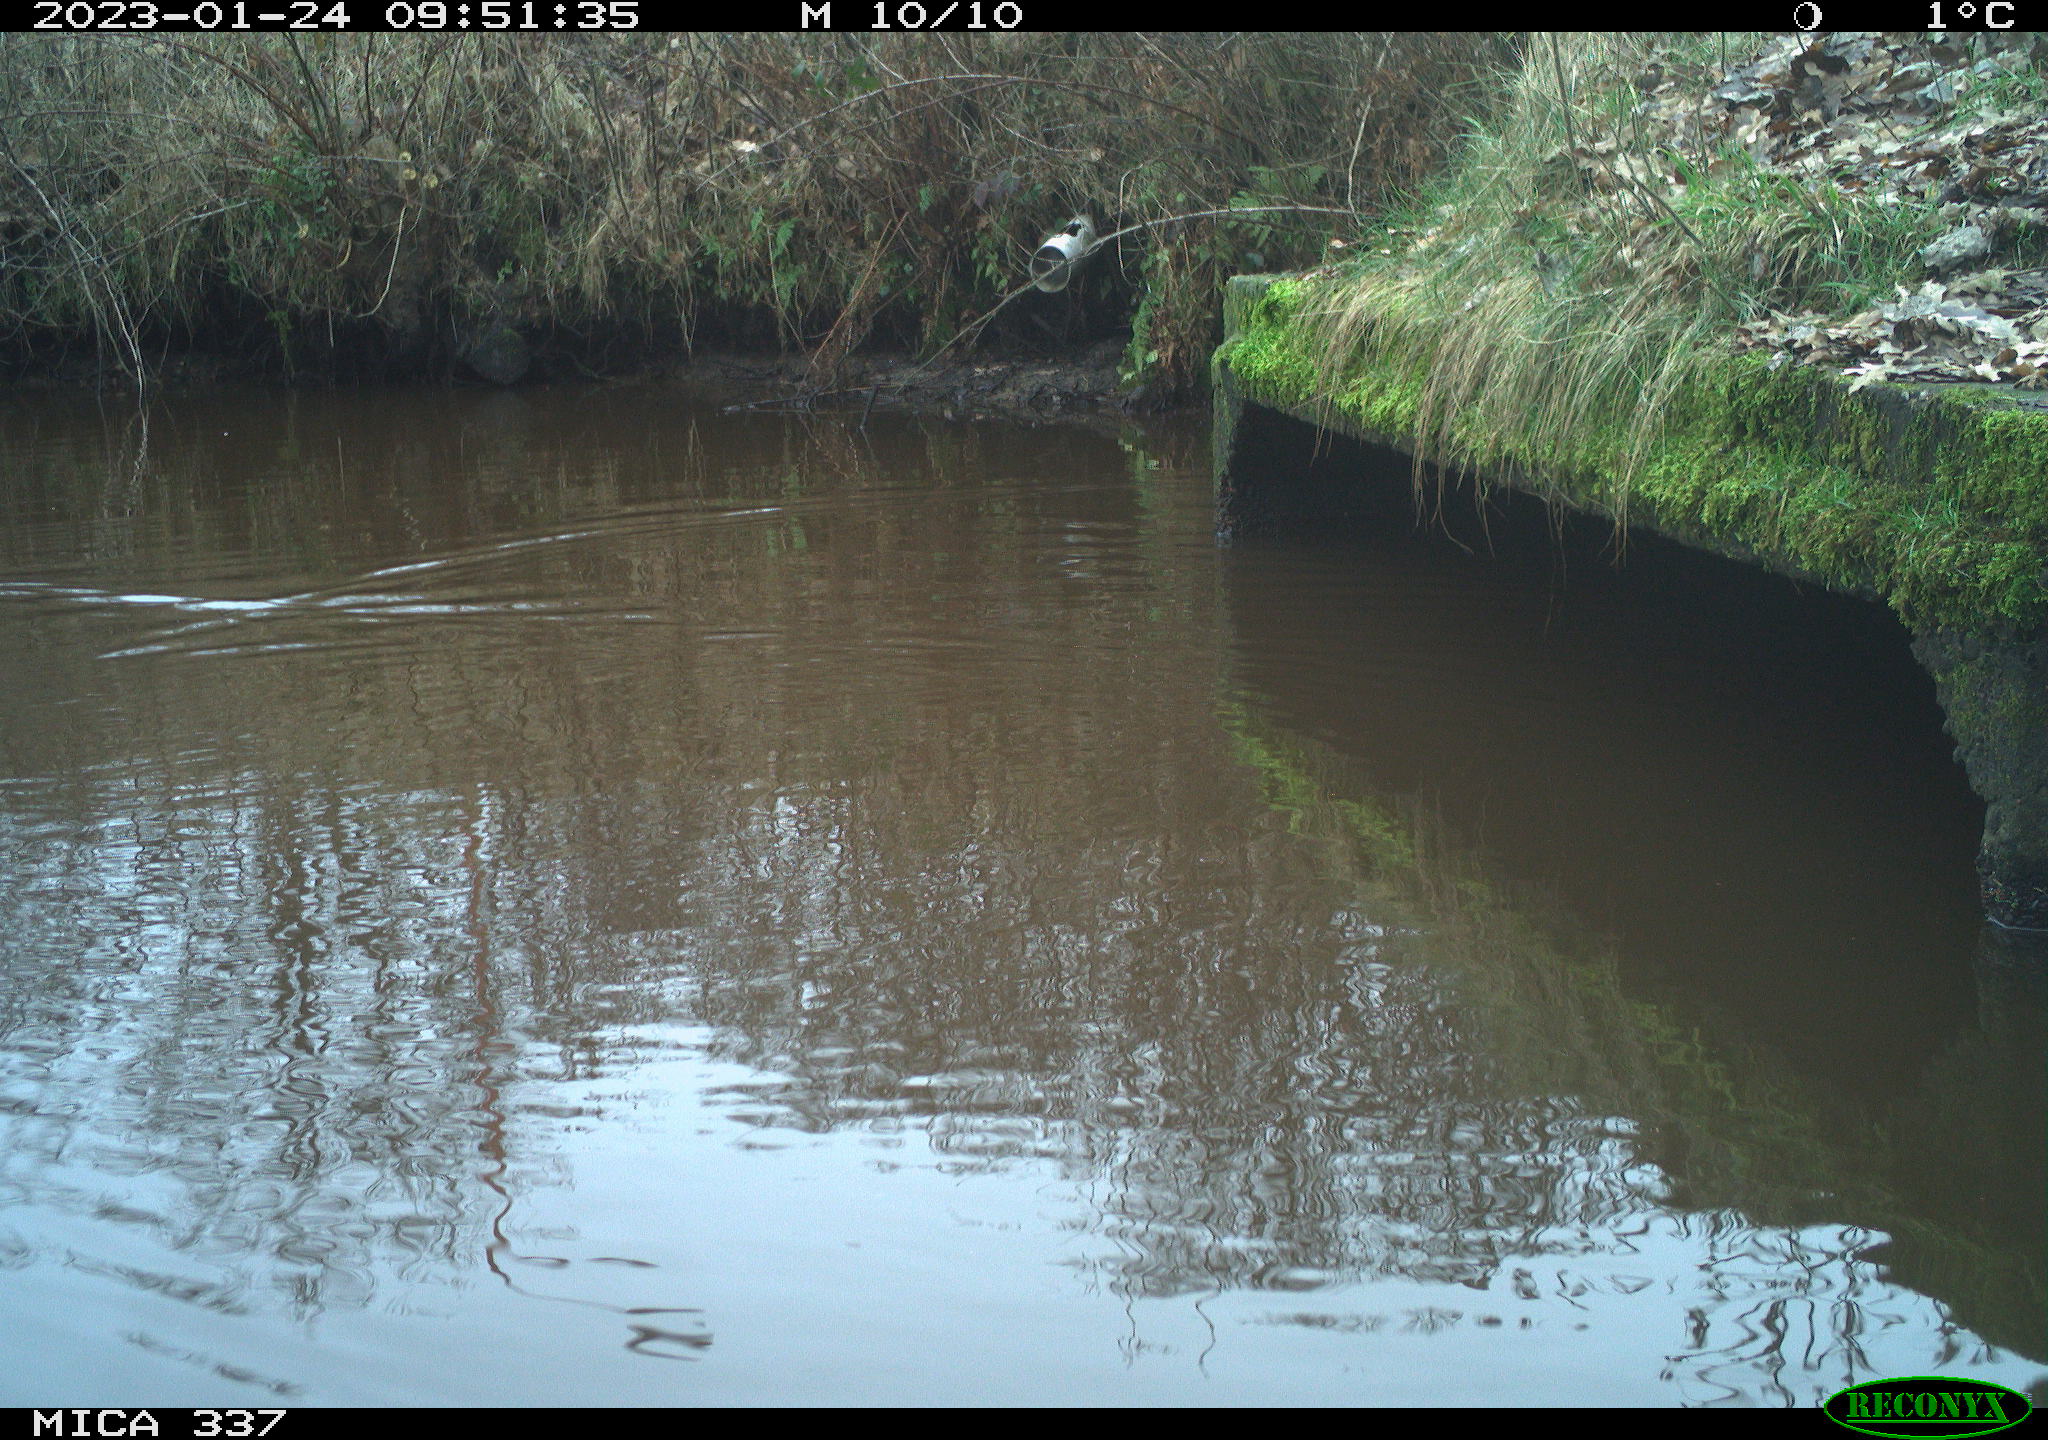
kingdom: Animalia
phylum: Chordata
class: Aves
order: Anseriformes
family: Anatidae
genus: Anas
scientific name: Anas
